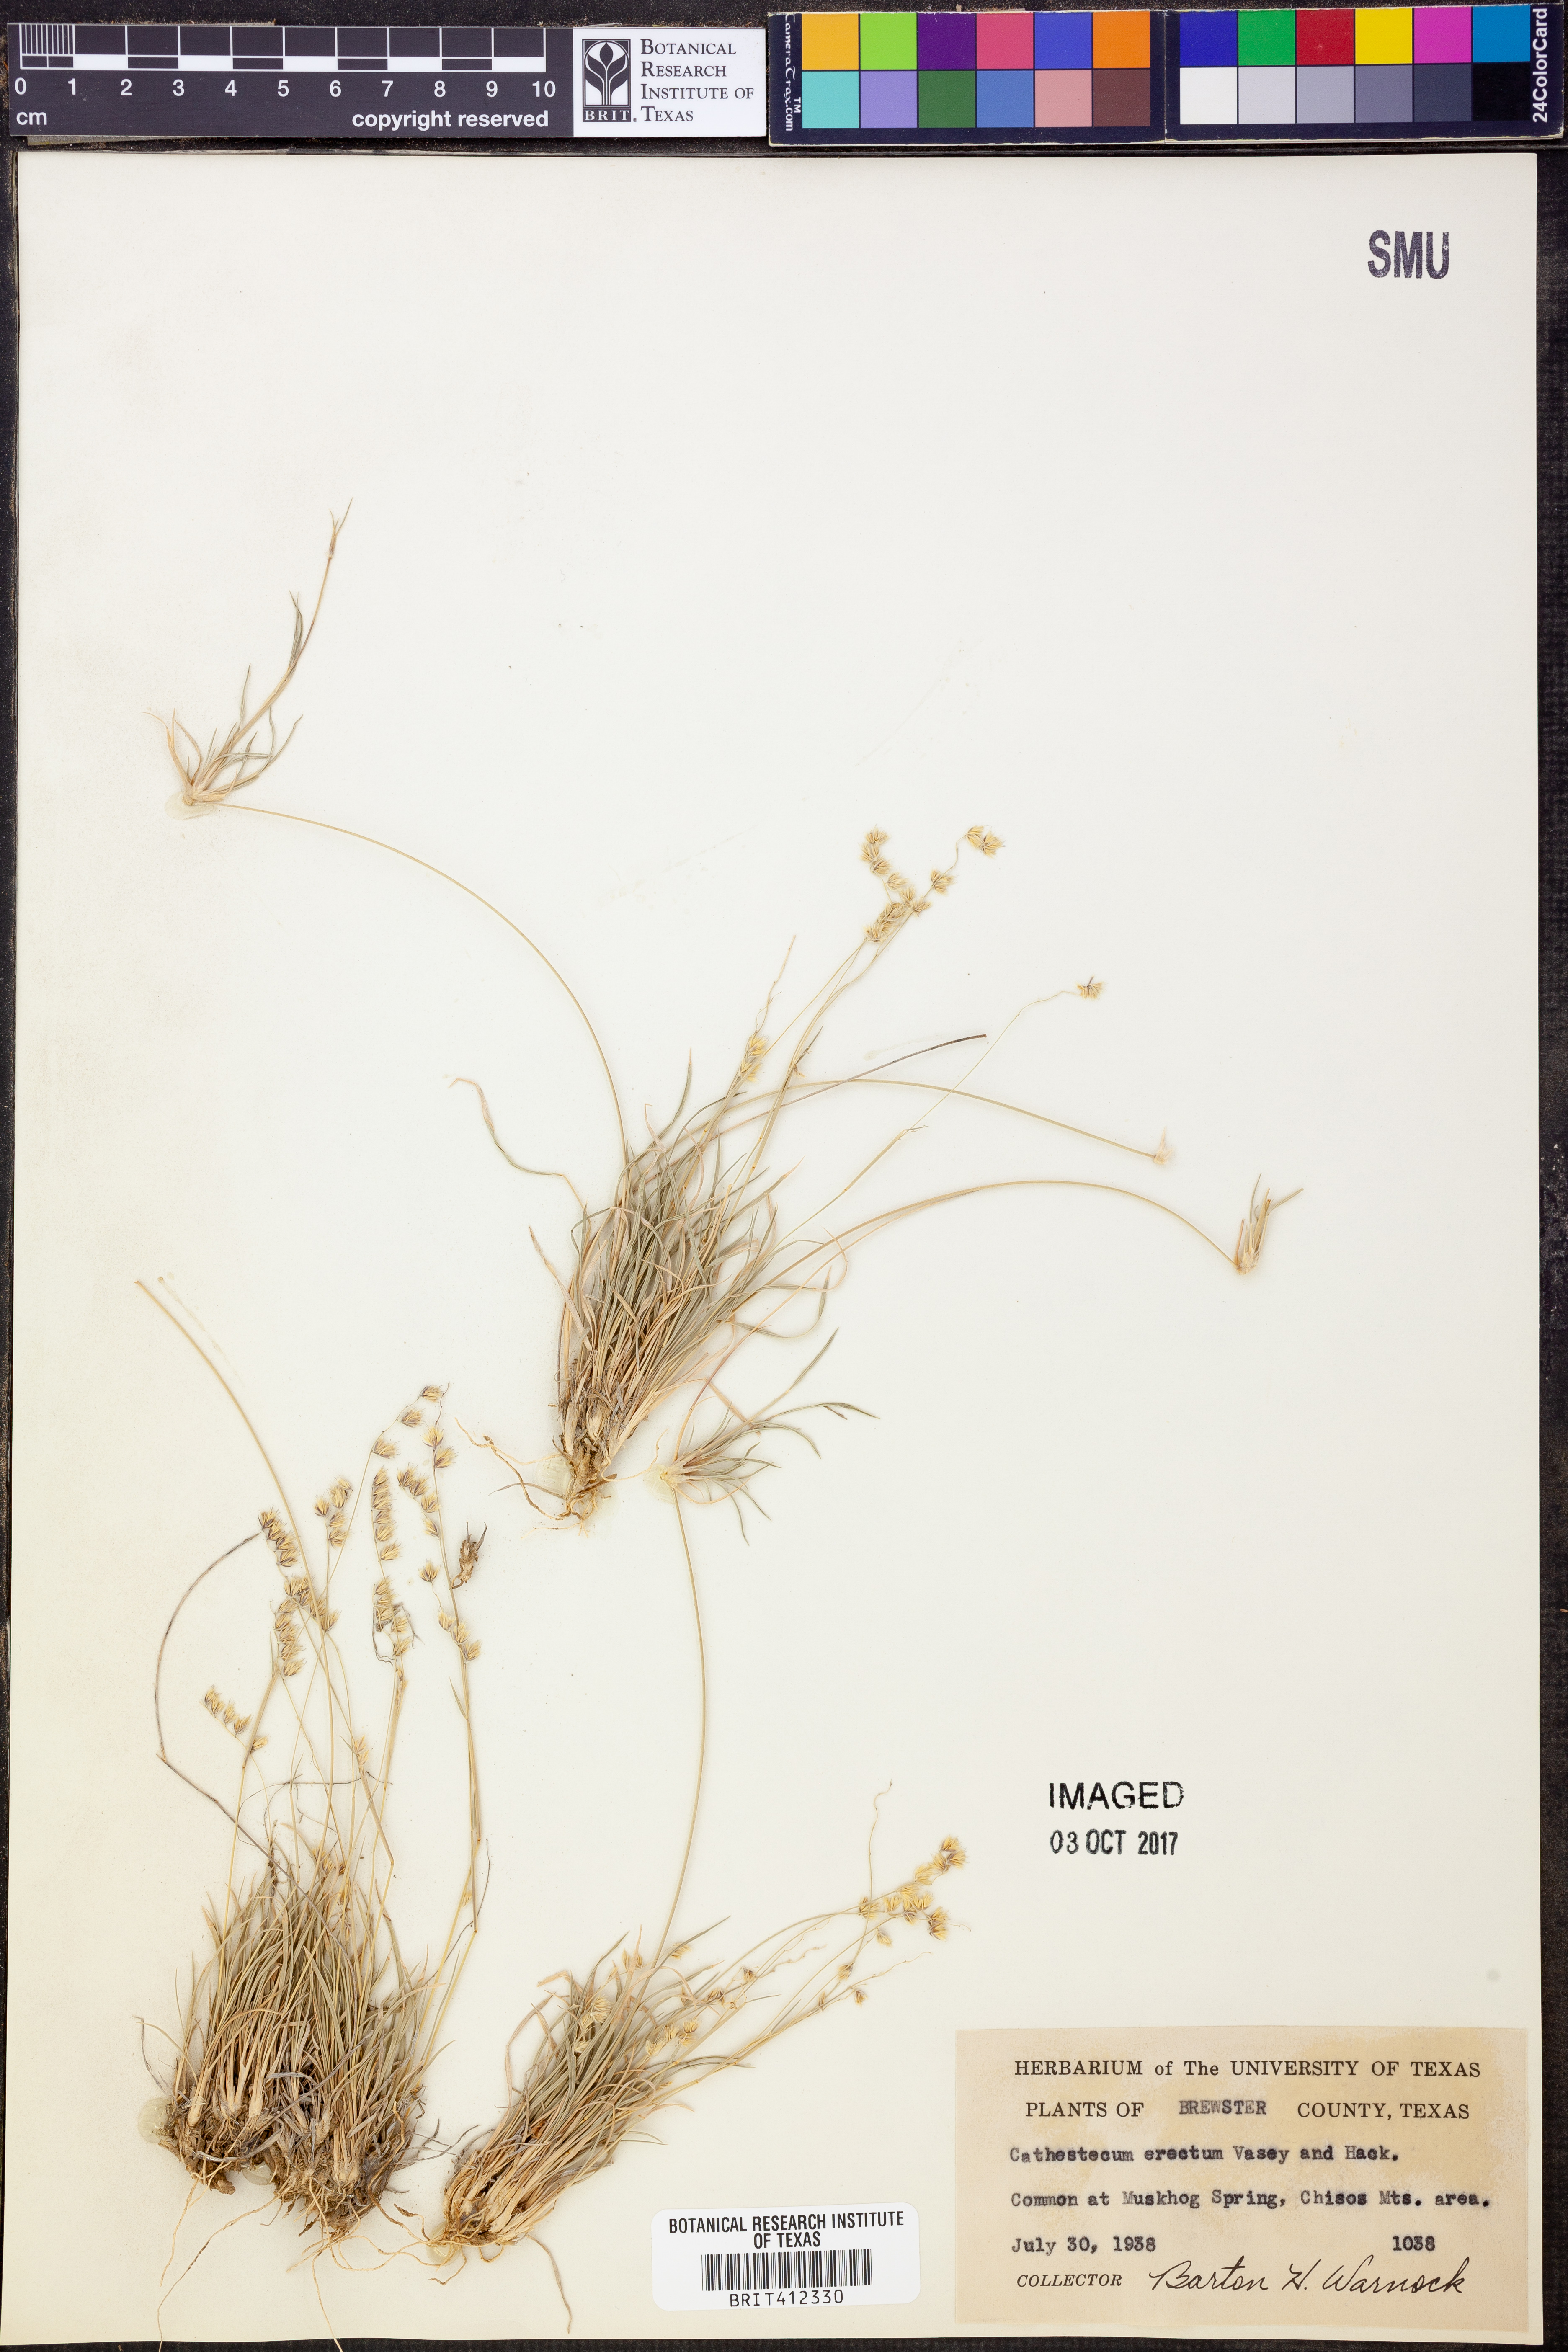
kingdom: Plantae
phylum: Tracheophyta
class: Liliopsida
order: Poales
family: Poaceae
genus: Bouteloua
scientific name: Bouteloua erecta
